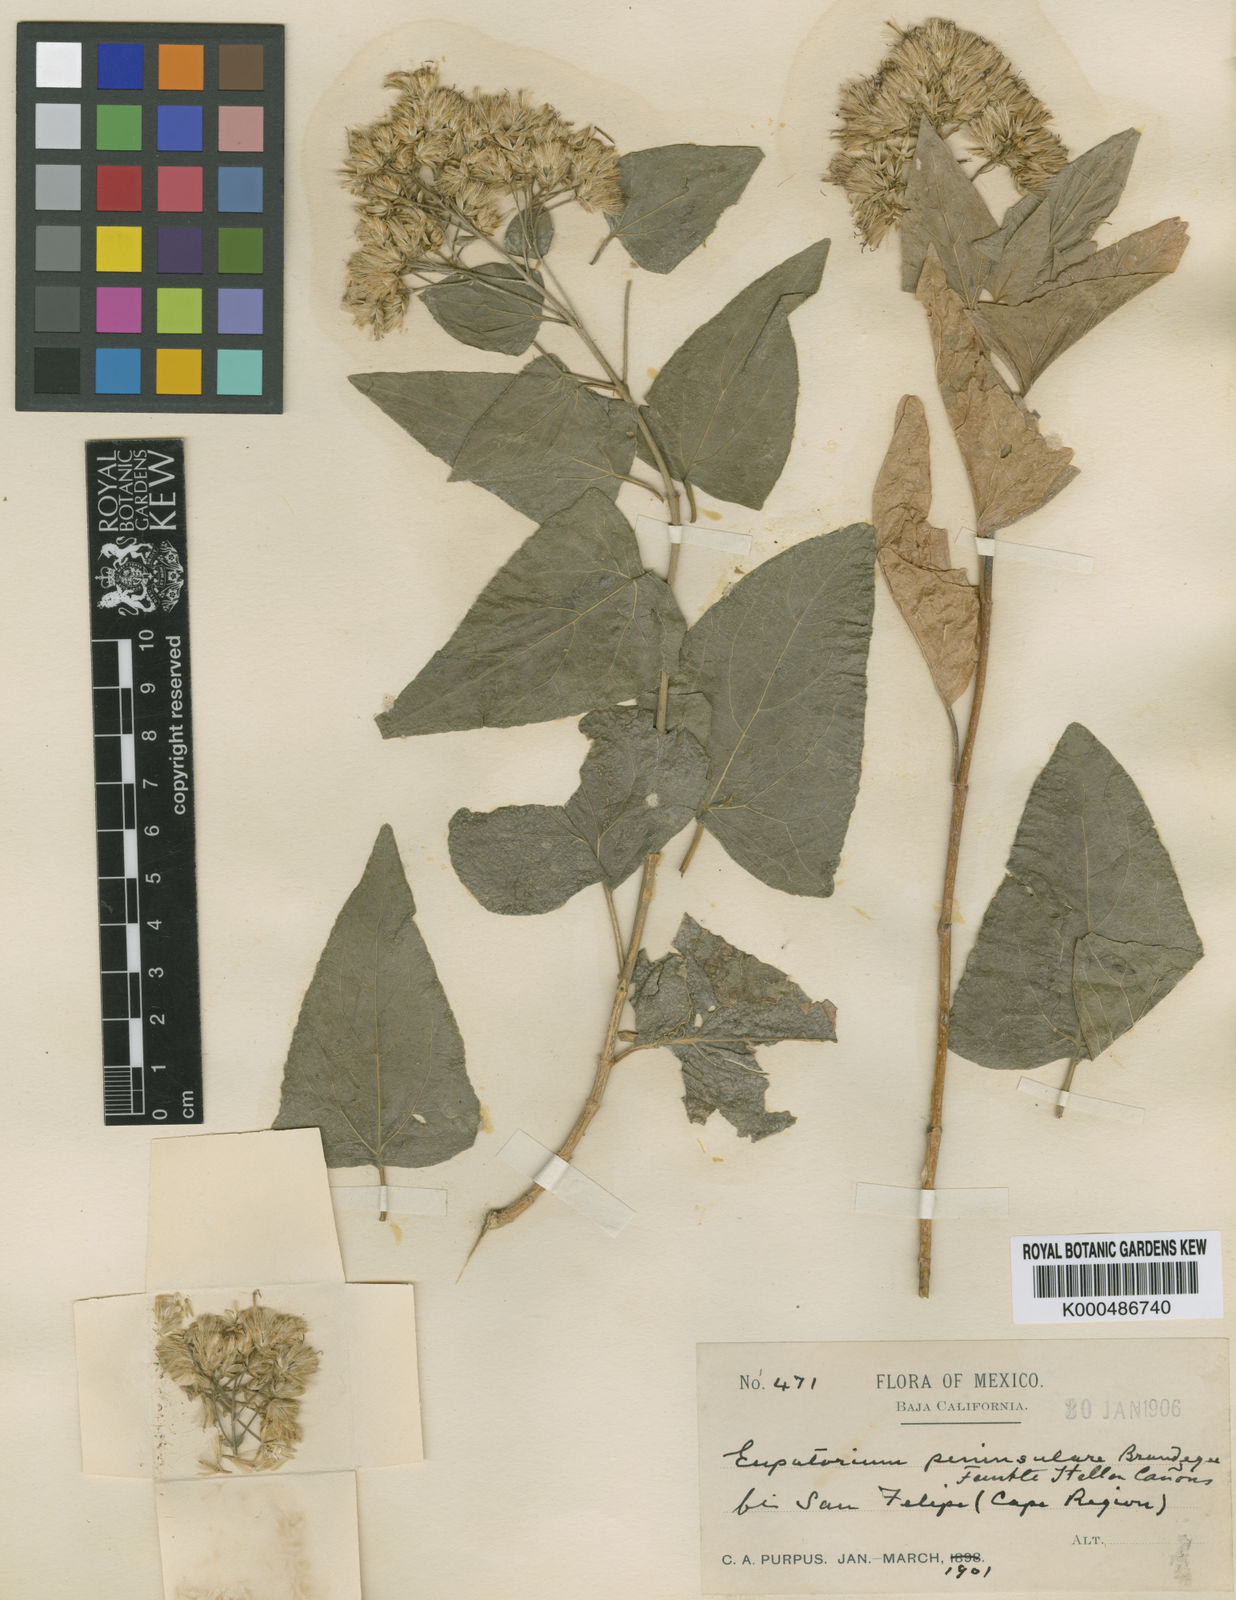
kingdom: Plantae
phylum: Tracheophyta
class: Magnoliopsida
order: Asterales
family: Asteraceae
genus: Koanophyllon
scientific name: Koanophyllon peninsulare
